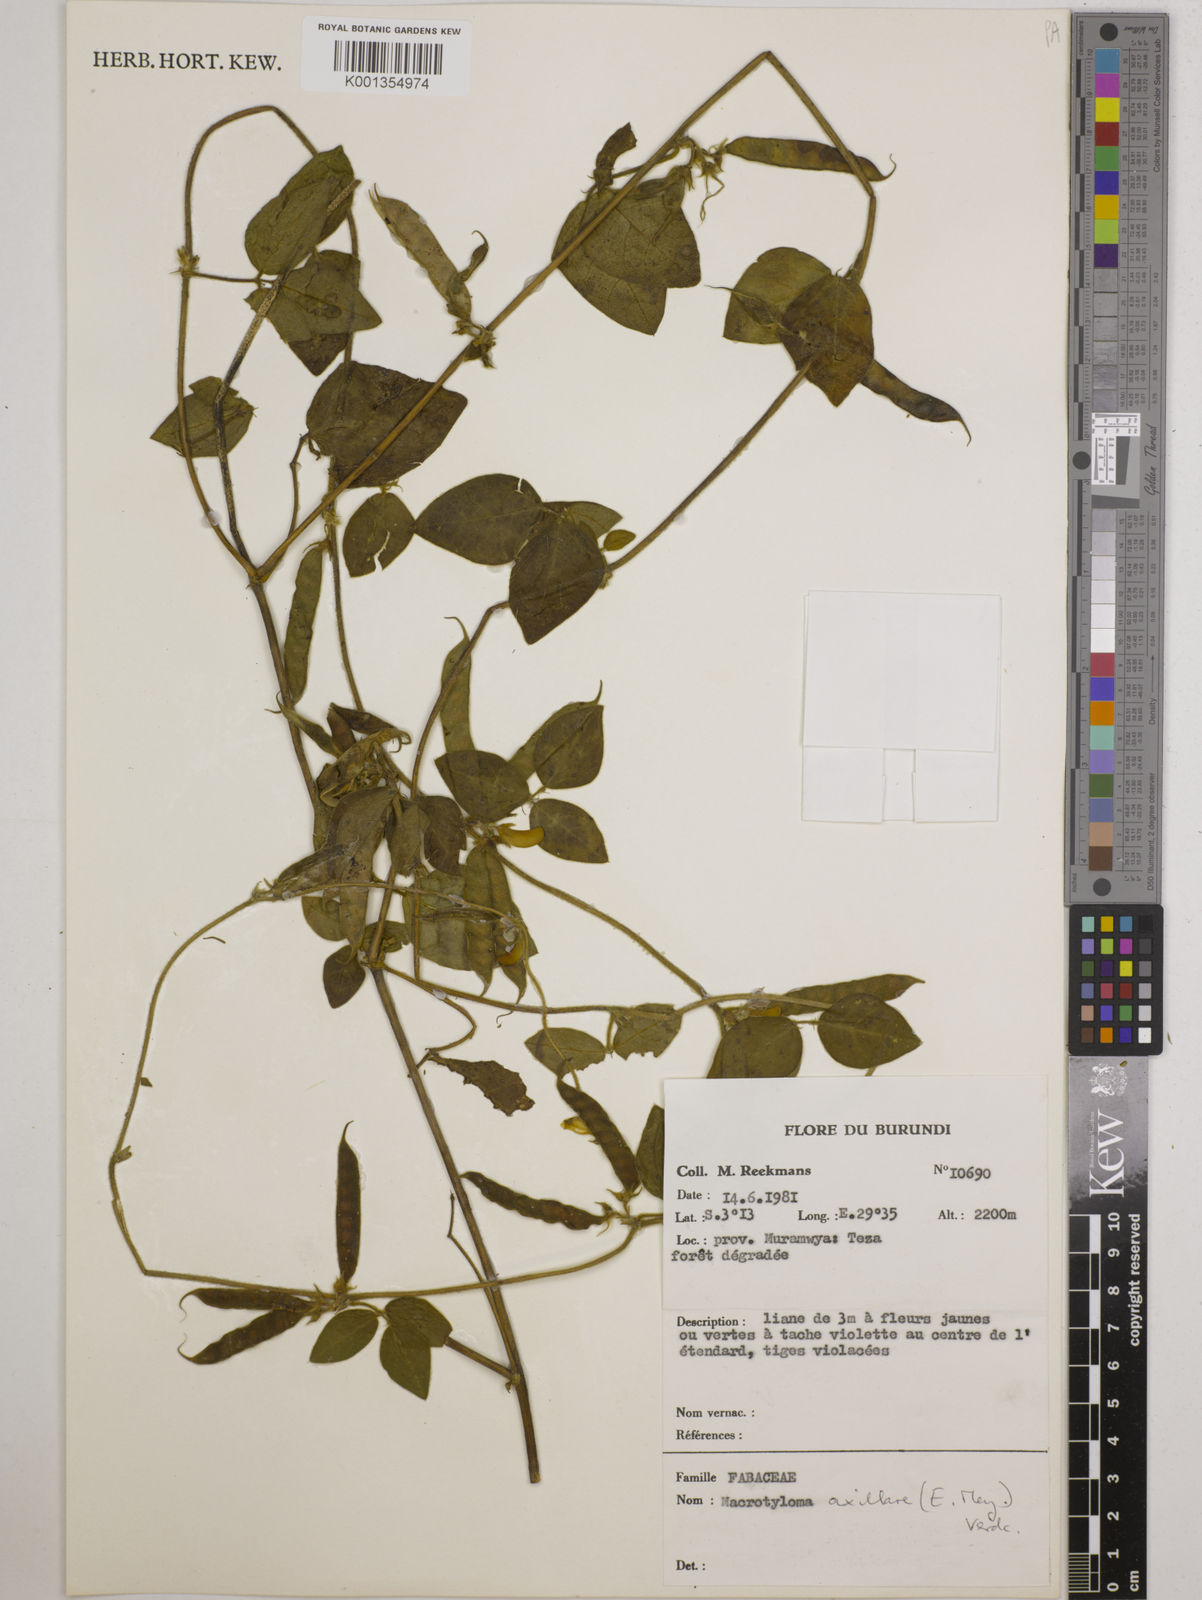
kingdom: Plantae
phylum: Tracheophyta
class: Magnoliopsida
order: Fabales
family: Fabaceae
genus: Macrotyloma
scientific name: Macrotyloma axillare
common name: Perennial horsegram
